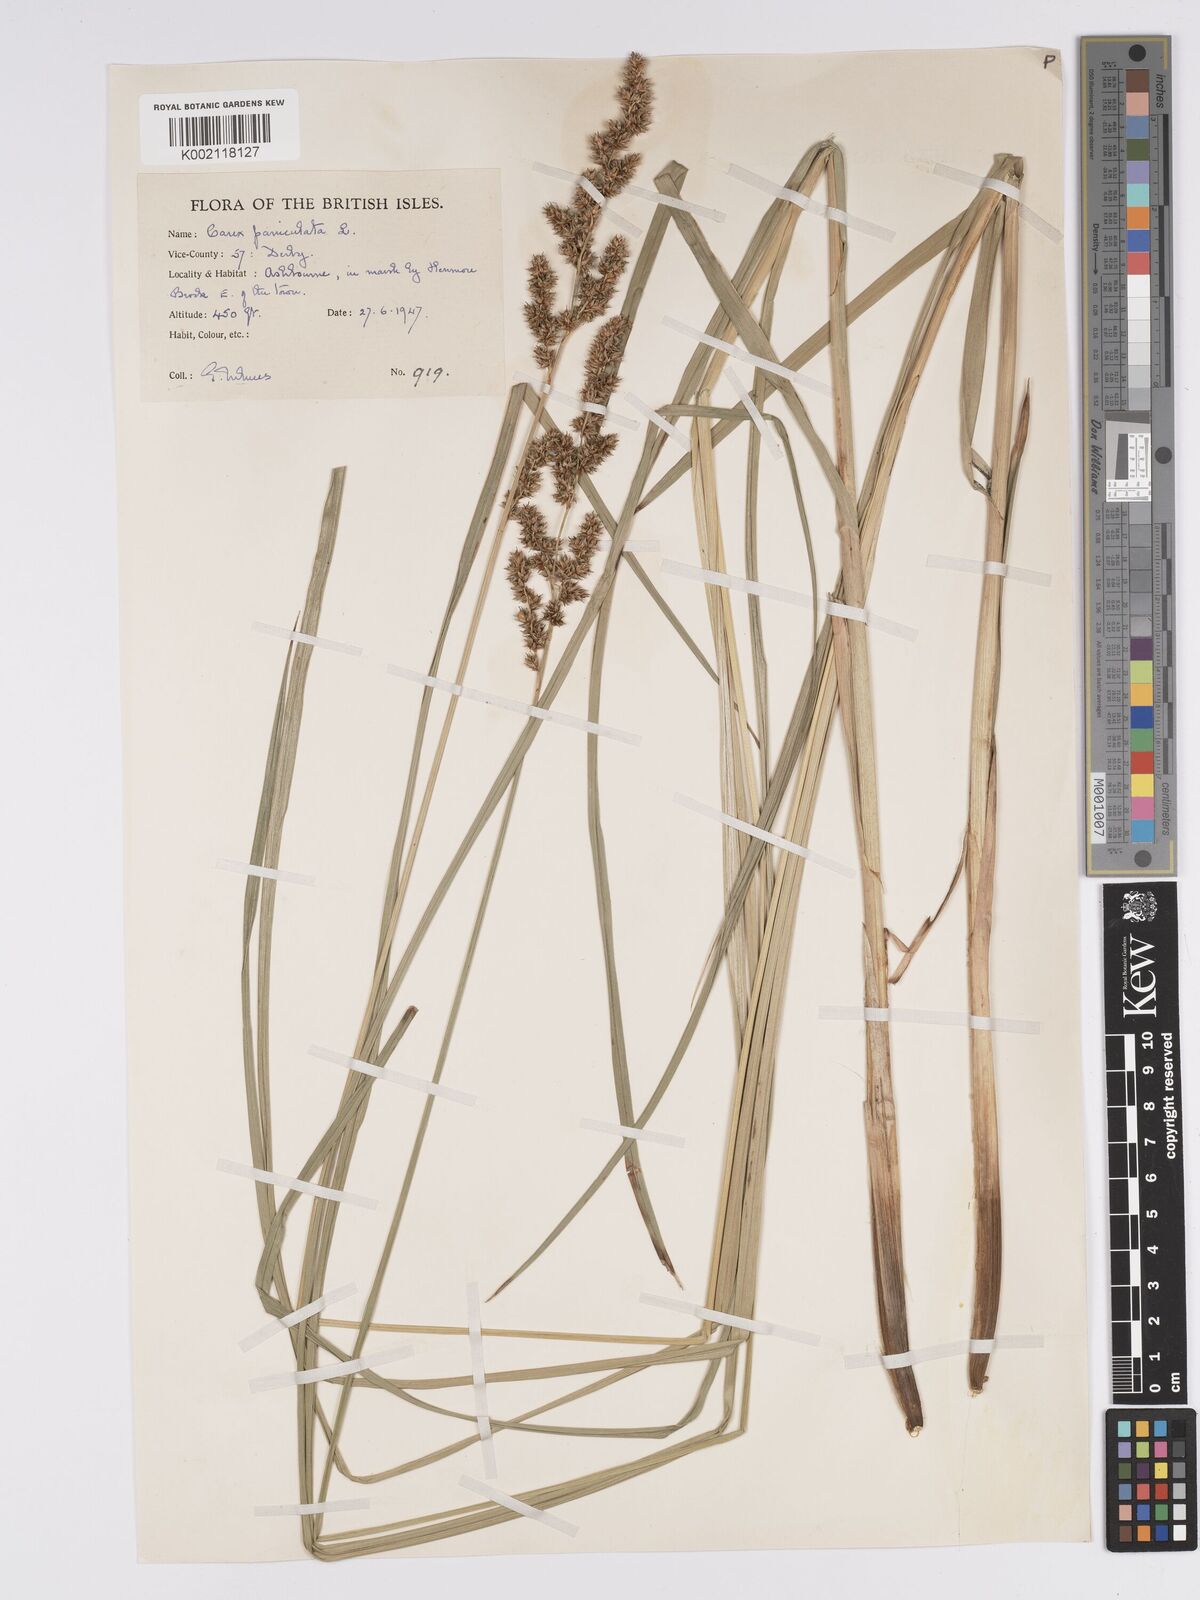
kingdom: Plantae
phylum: Tracheophyta
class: Liliopsida
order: Poales
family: Cyperaceae
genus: Carex
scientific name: Carex paniculata
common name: Greater tussock-sedge
